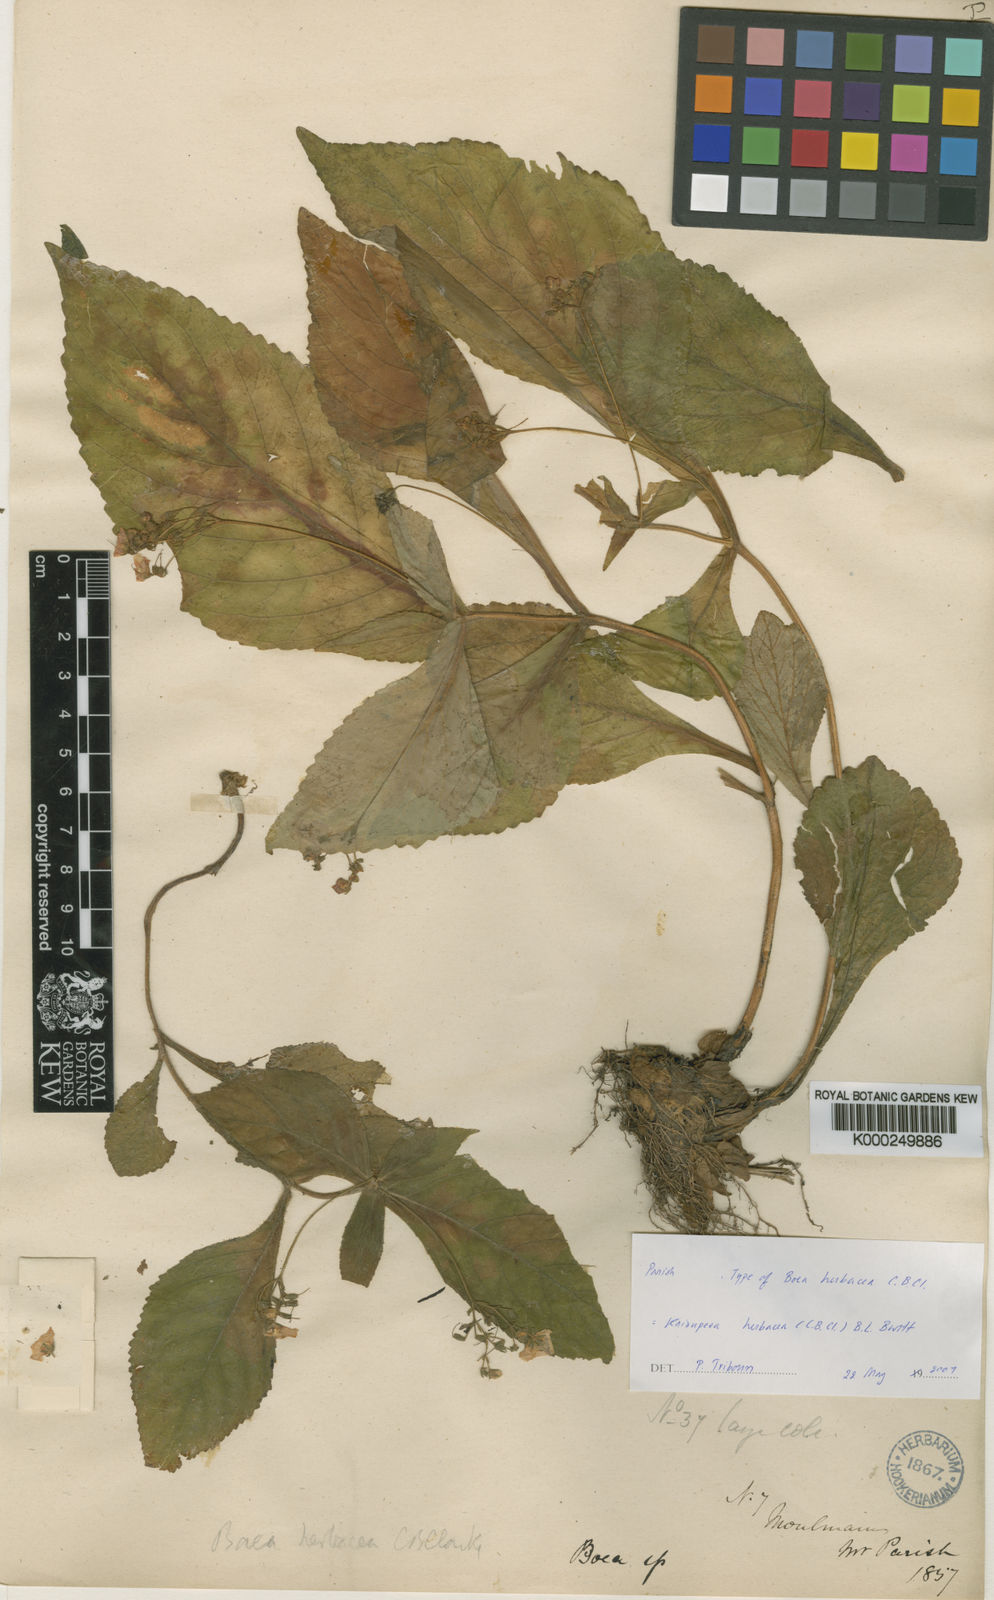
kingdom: Plantae
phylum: Tracheophyta
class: Magnoliopsida
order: Lamiales
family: Gesneriaceae
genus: Kaisupeea
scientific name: Kaisupeea herbacea
